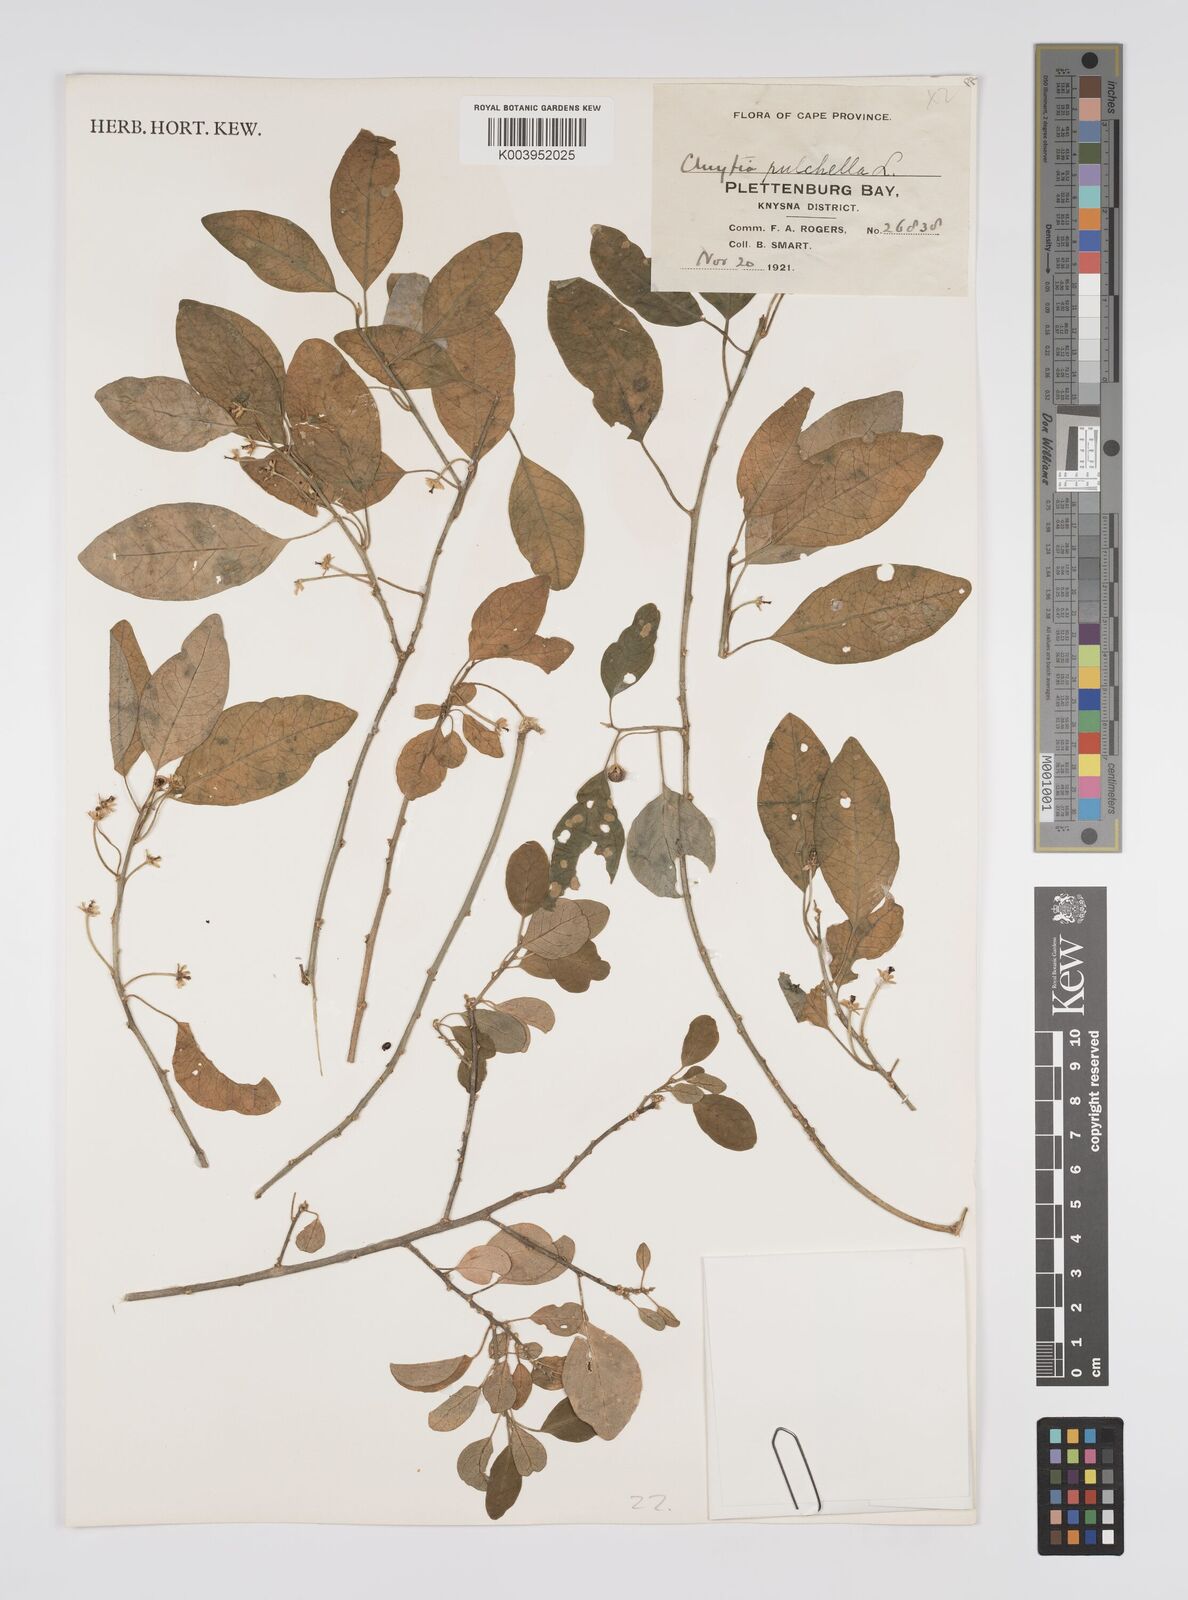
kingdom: Plantae
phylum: Tracheophyta
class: Magnoliopsida
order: Malpighiales
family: Peraceae
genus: Clutia
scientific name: Clutia pulchella
